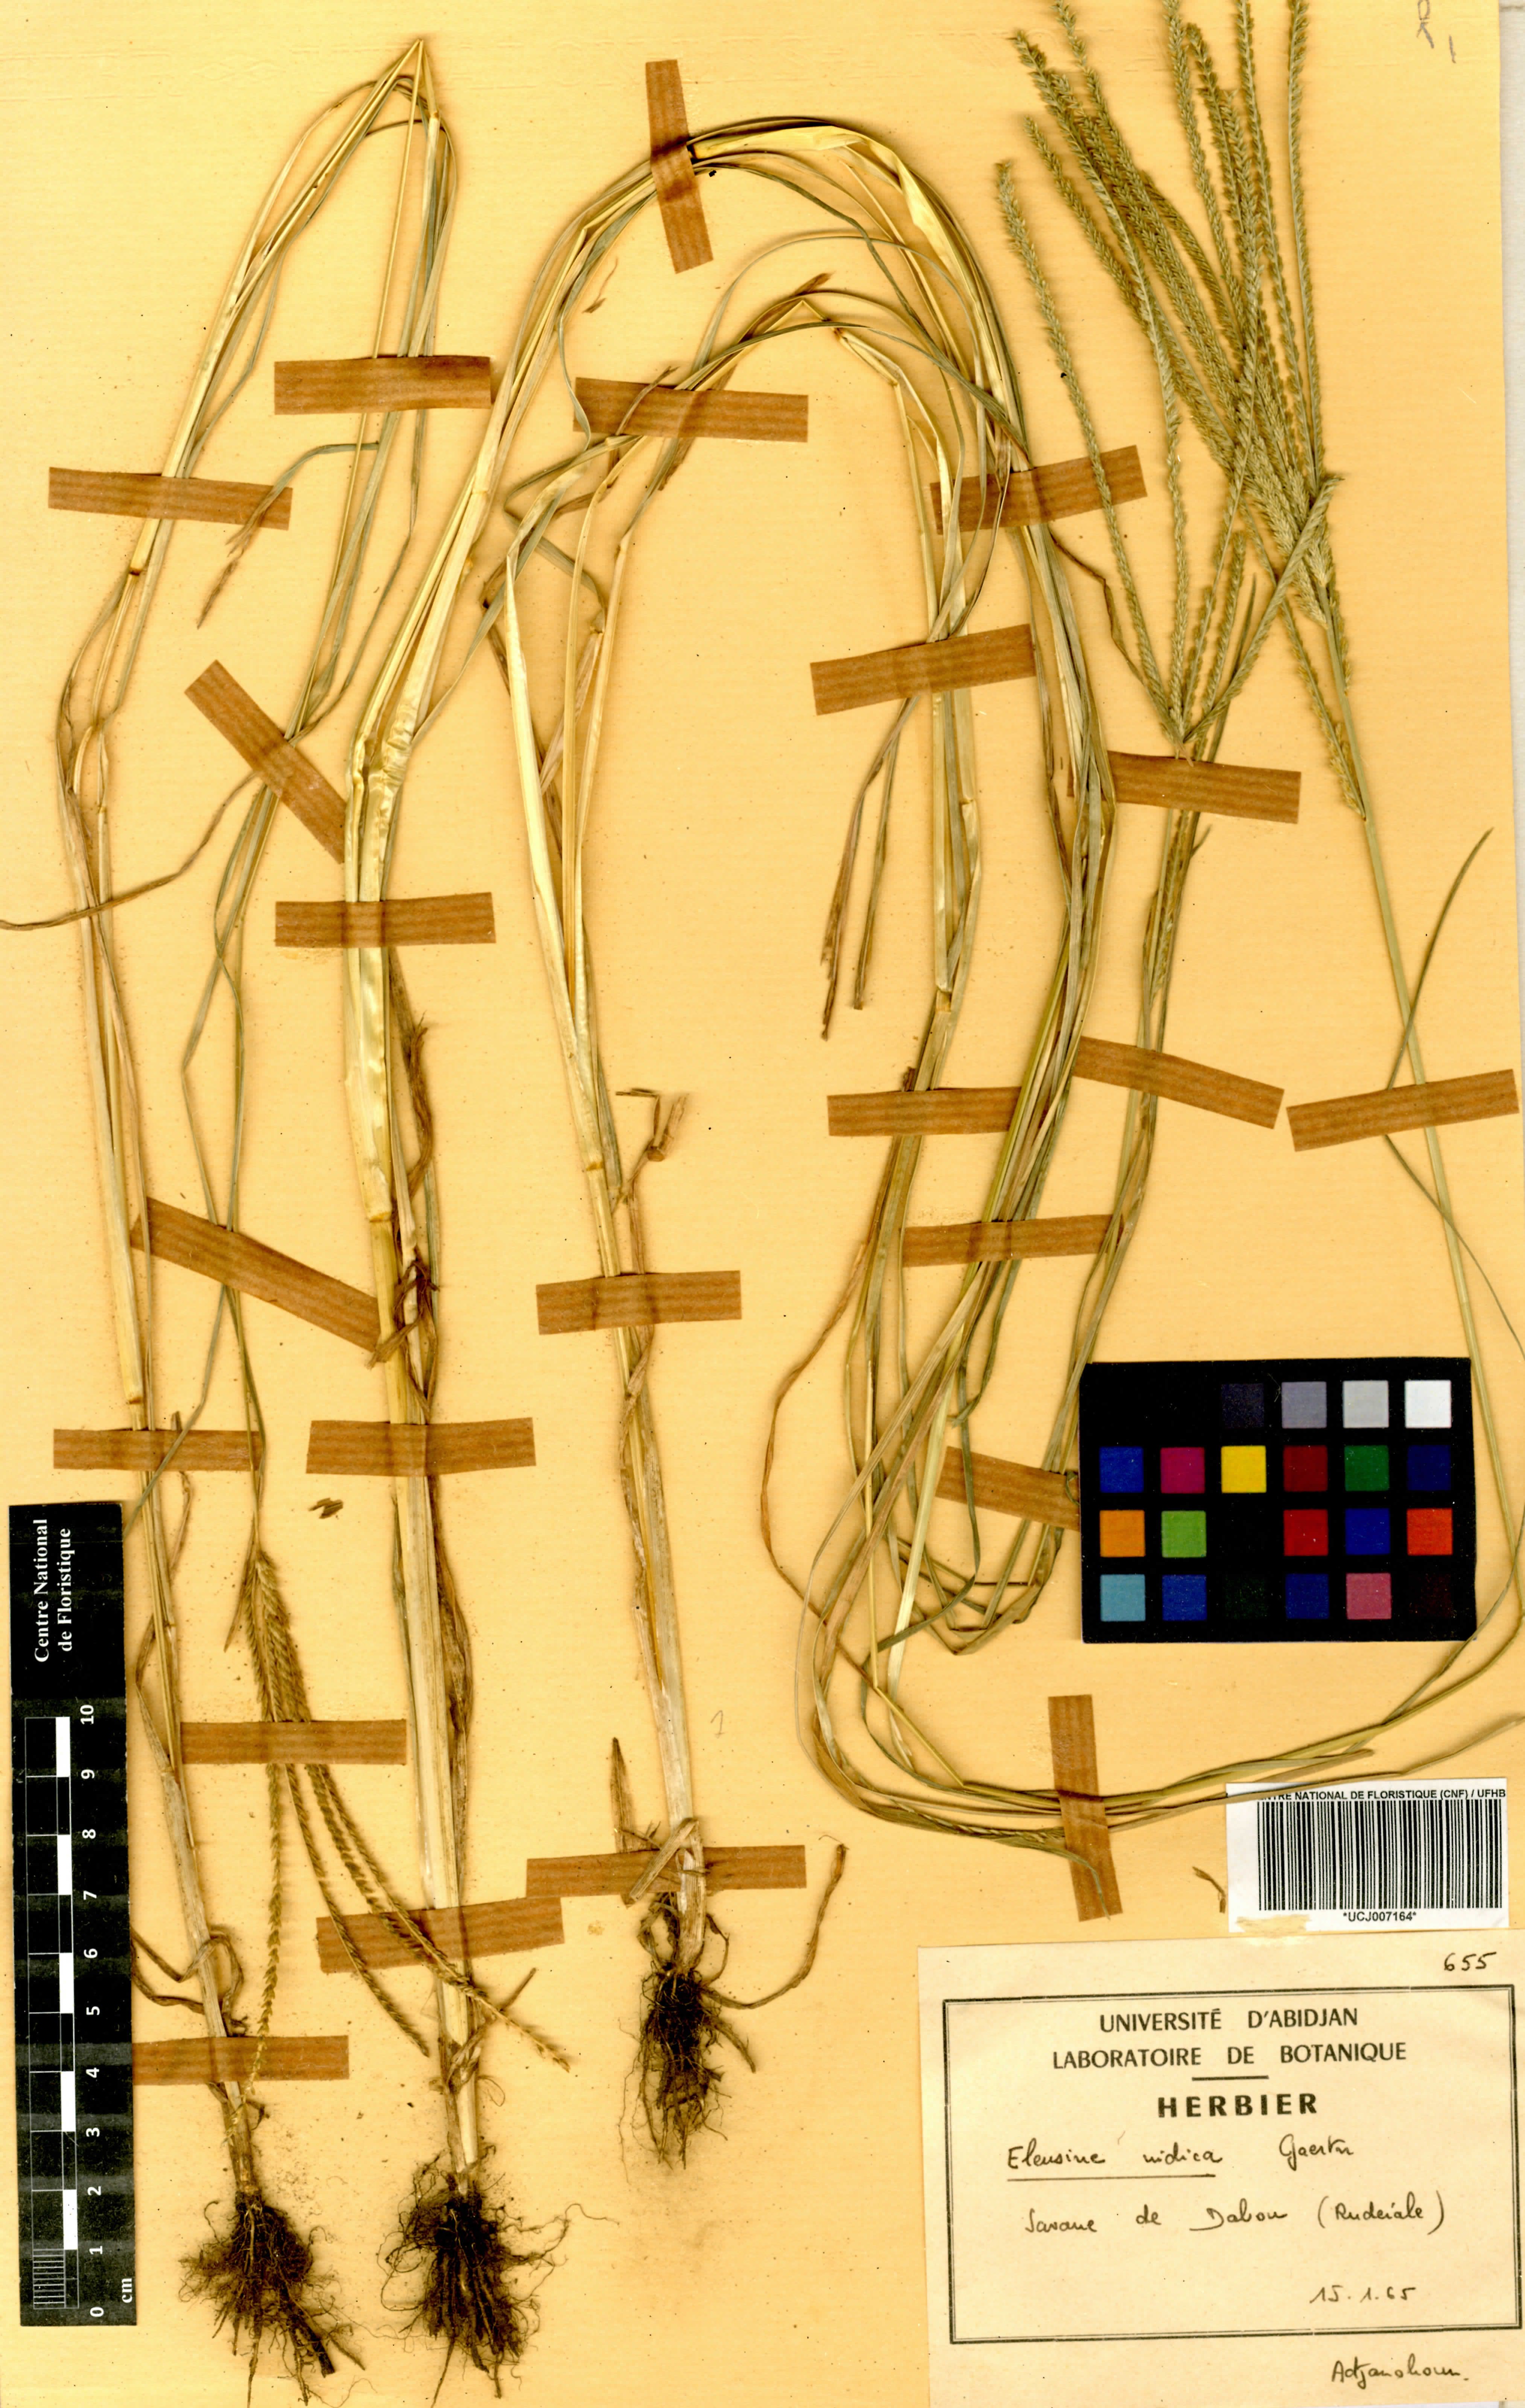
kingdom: Plantae
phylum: Tracheophyta
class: Liliopsida
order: Poales
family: Poaceae
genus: Eleusine
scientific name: Eleusine indica
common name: Yard-grass
